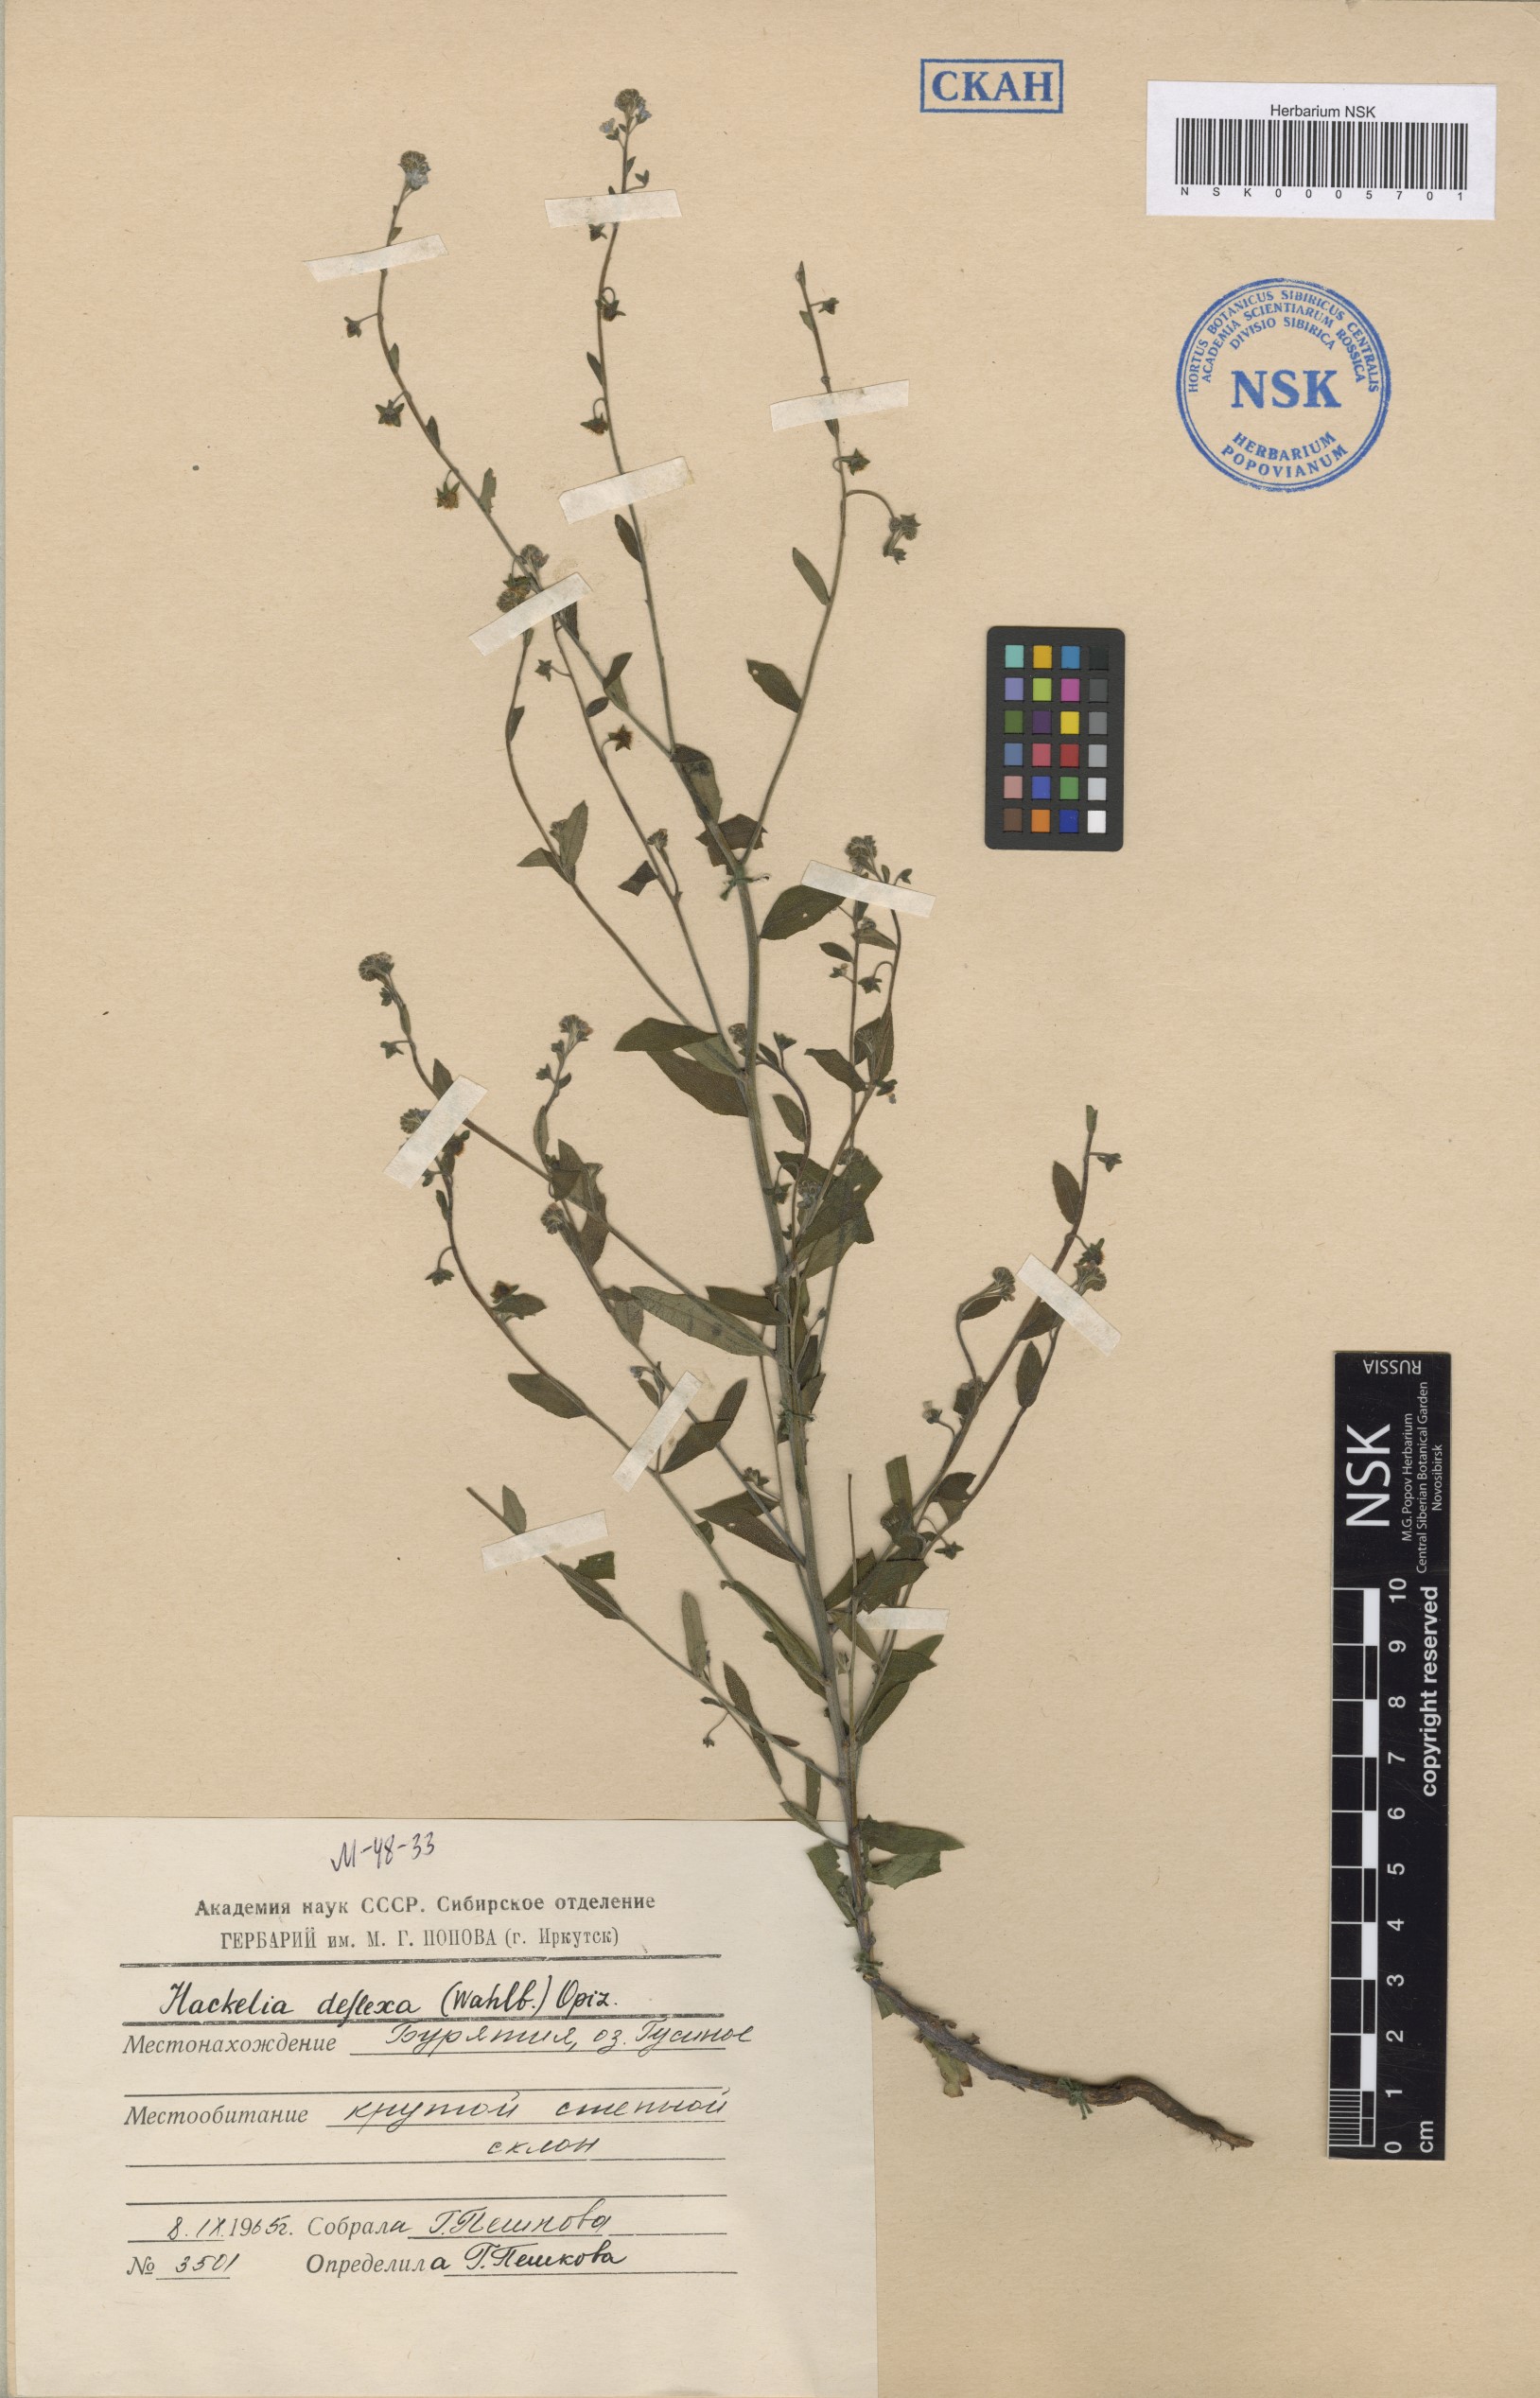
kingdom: Plantae
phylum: Tracheophyta
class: Magnoliopsida
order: Boraginales
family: Boraginaceae
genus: Hackelia
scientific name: Hackelia deflexa
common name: Nodding stickseed
